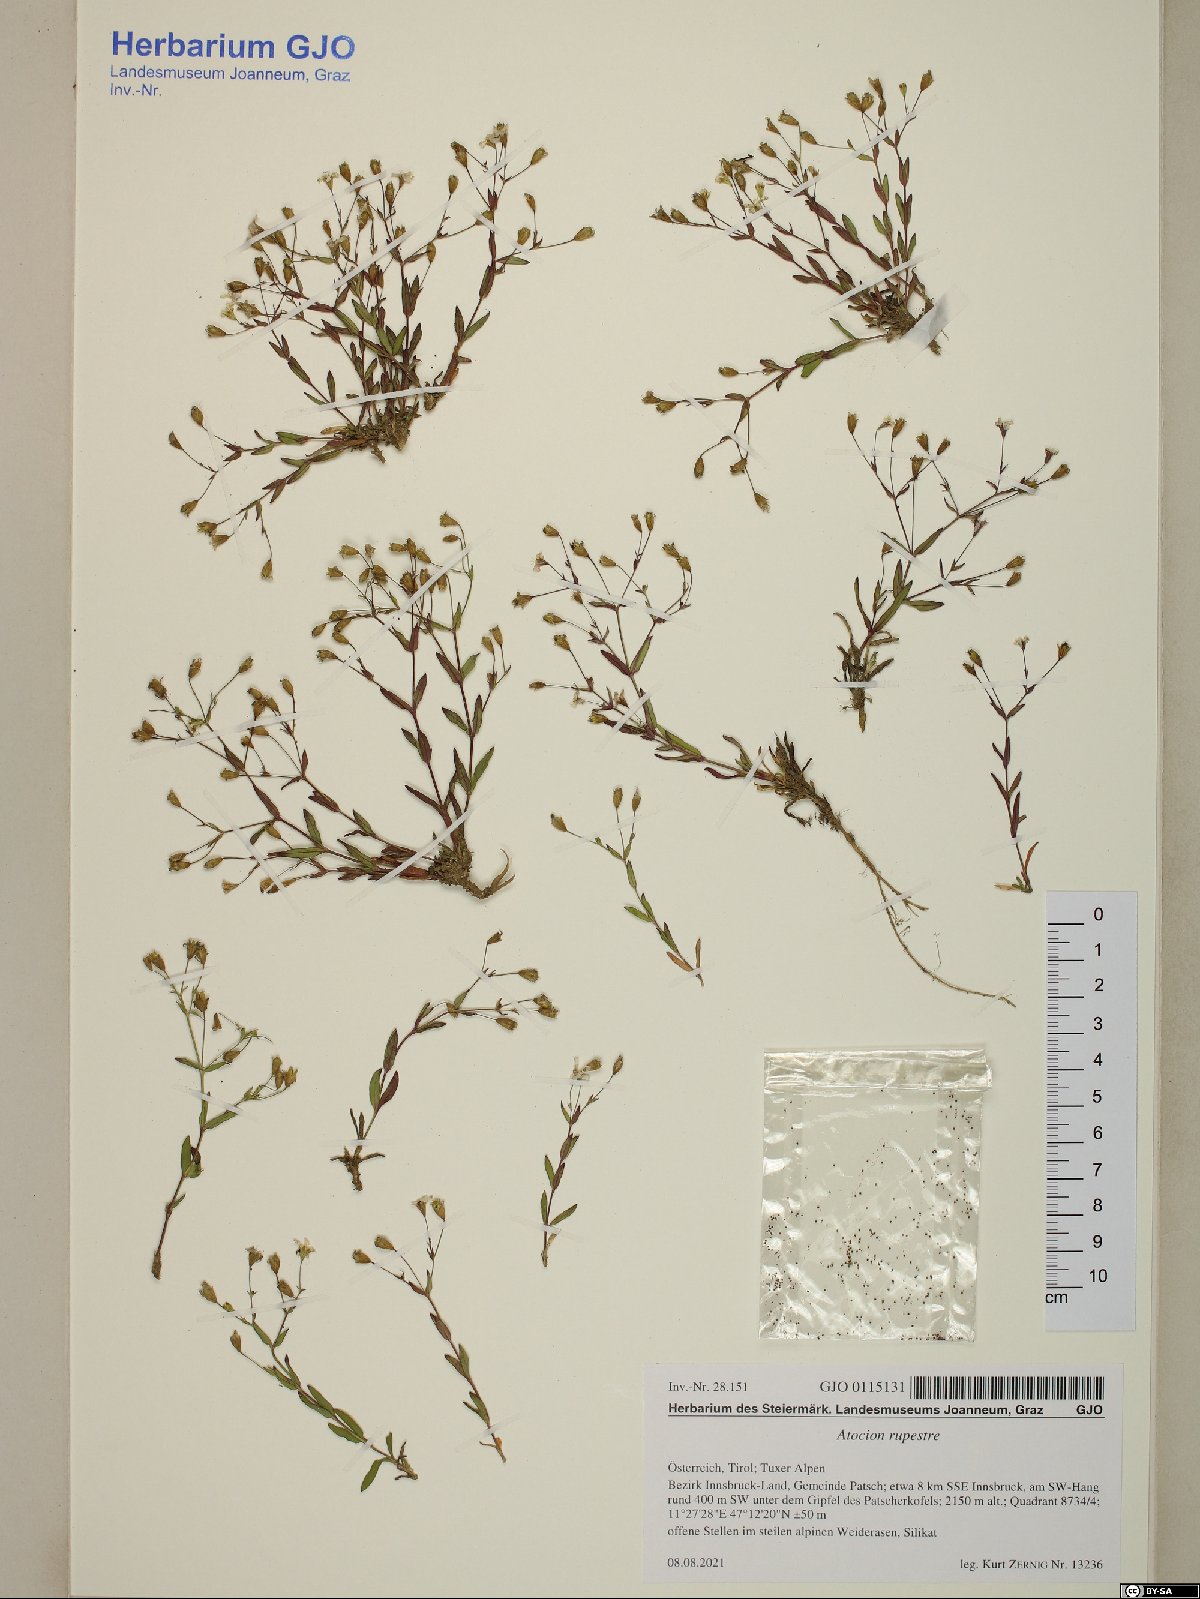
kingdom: Plantae
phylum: Tracheophyta
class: Magnoliopsida
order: Caryophyllales
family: Caryophyllaceae
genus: Atocion
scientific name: Atocion rupestre
